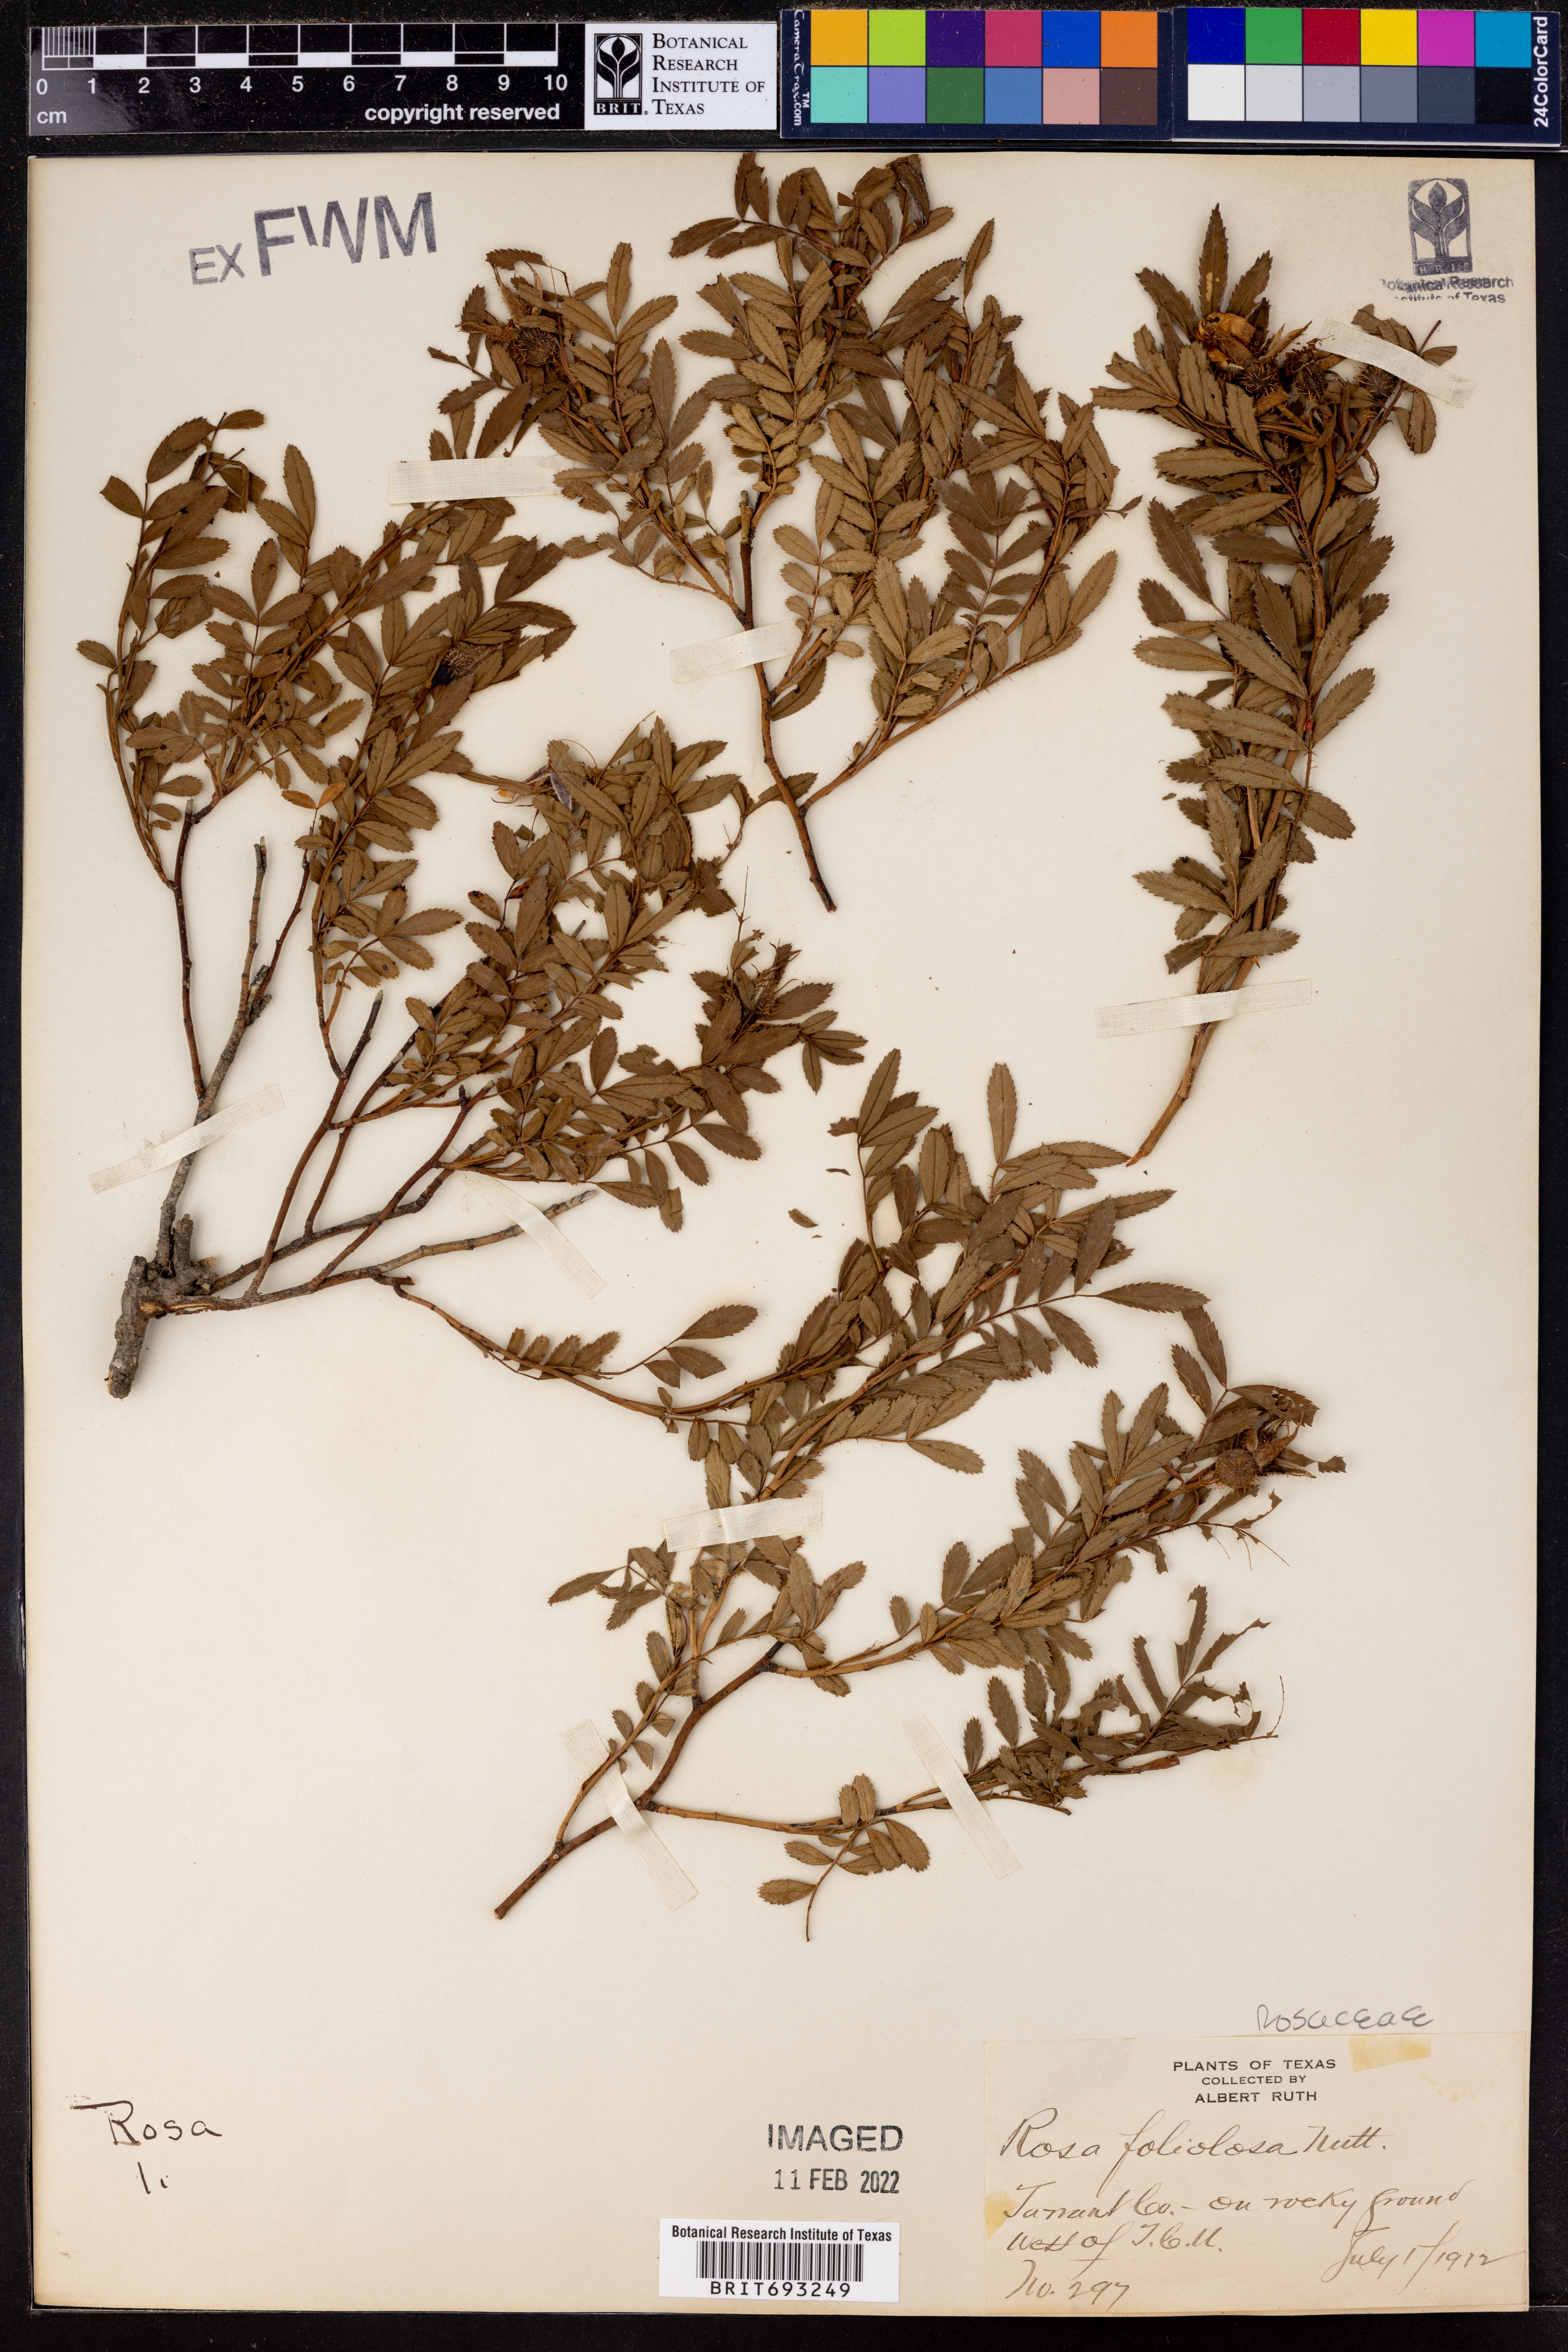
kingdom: Plantae
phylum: Tracheophyta
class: Magnoliopsida
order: Rosales
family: Rosaceae
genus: Rosa
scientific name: Rosa foliolosa
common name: White prairie rose
